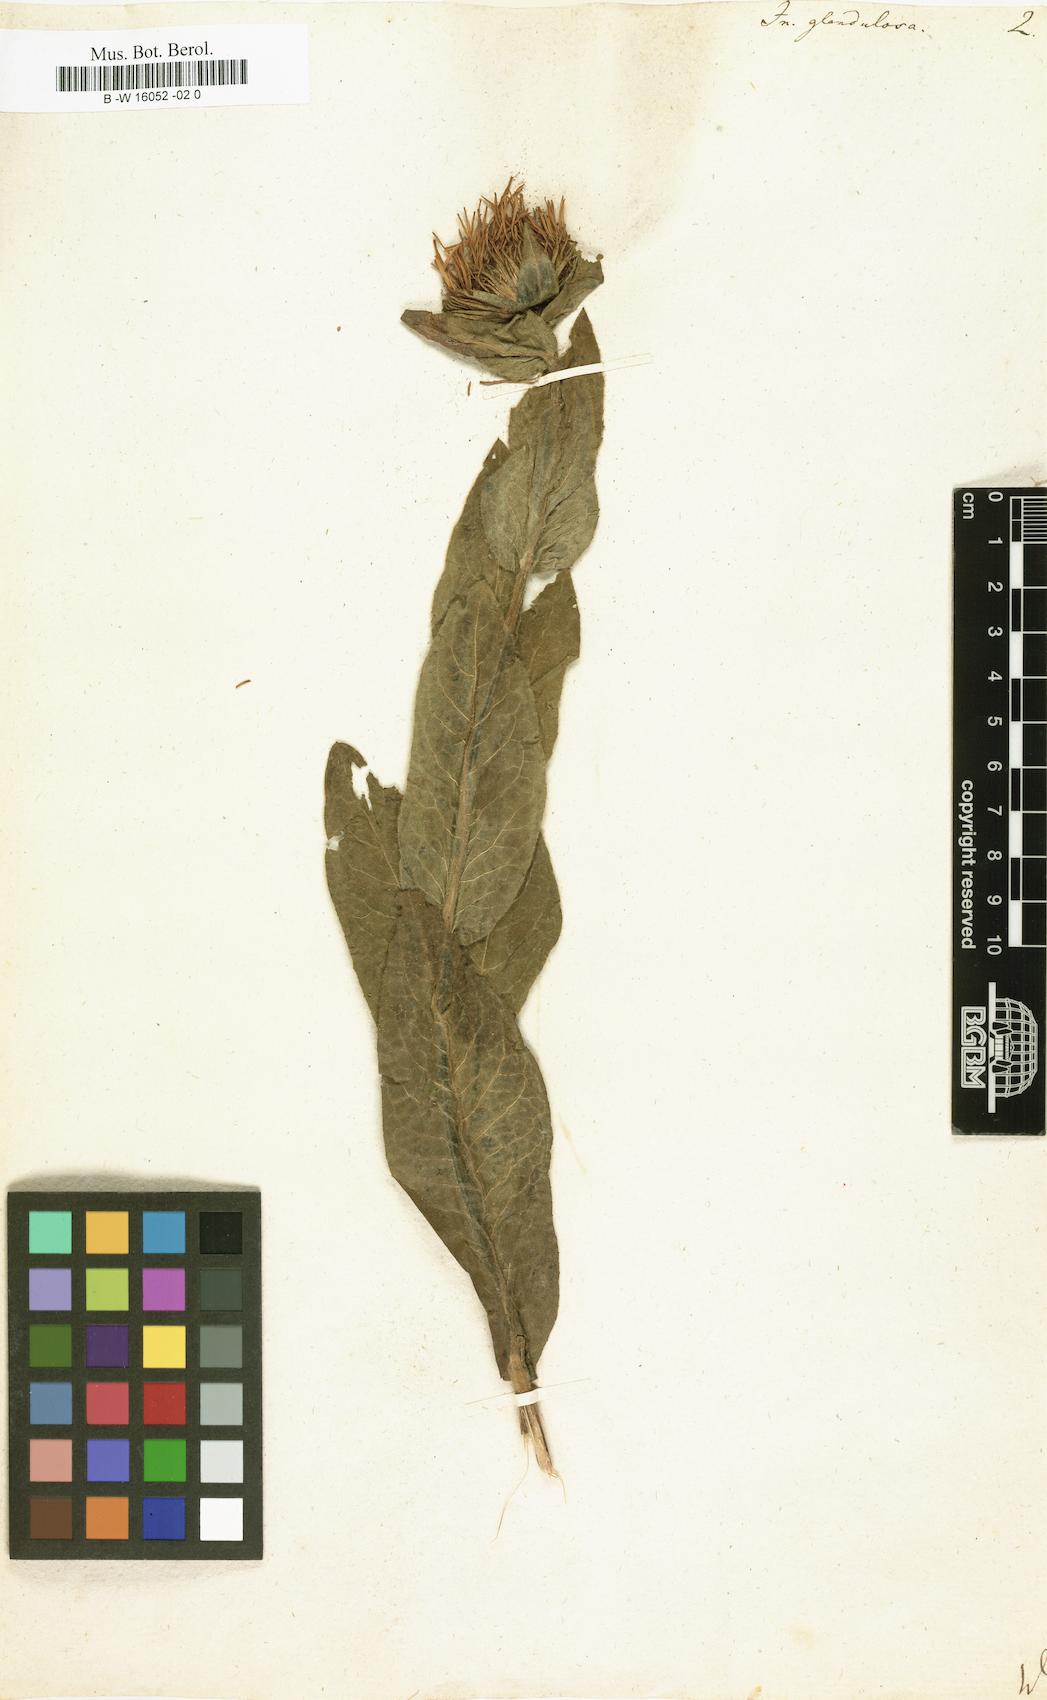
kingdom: Plantae
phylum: Tracheophyta
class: Magnoliopsida
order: Asterales
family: Asteraceae
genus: Chrysopsis
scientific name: Chrysopsis mariana
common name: Maryland golden-aster
